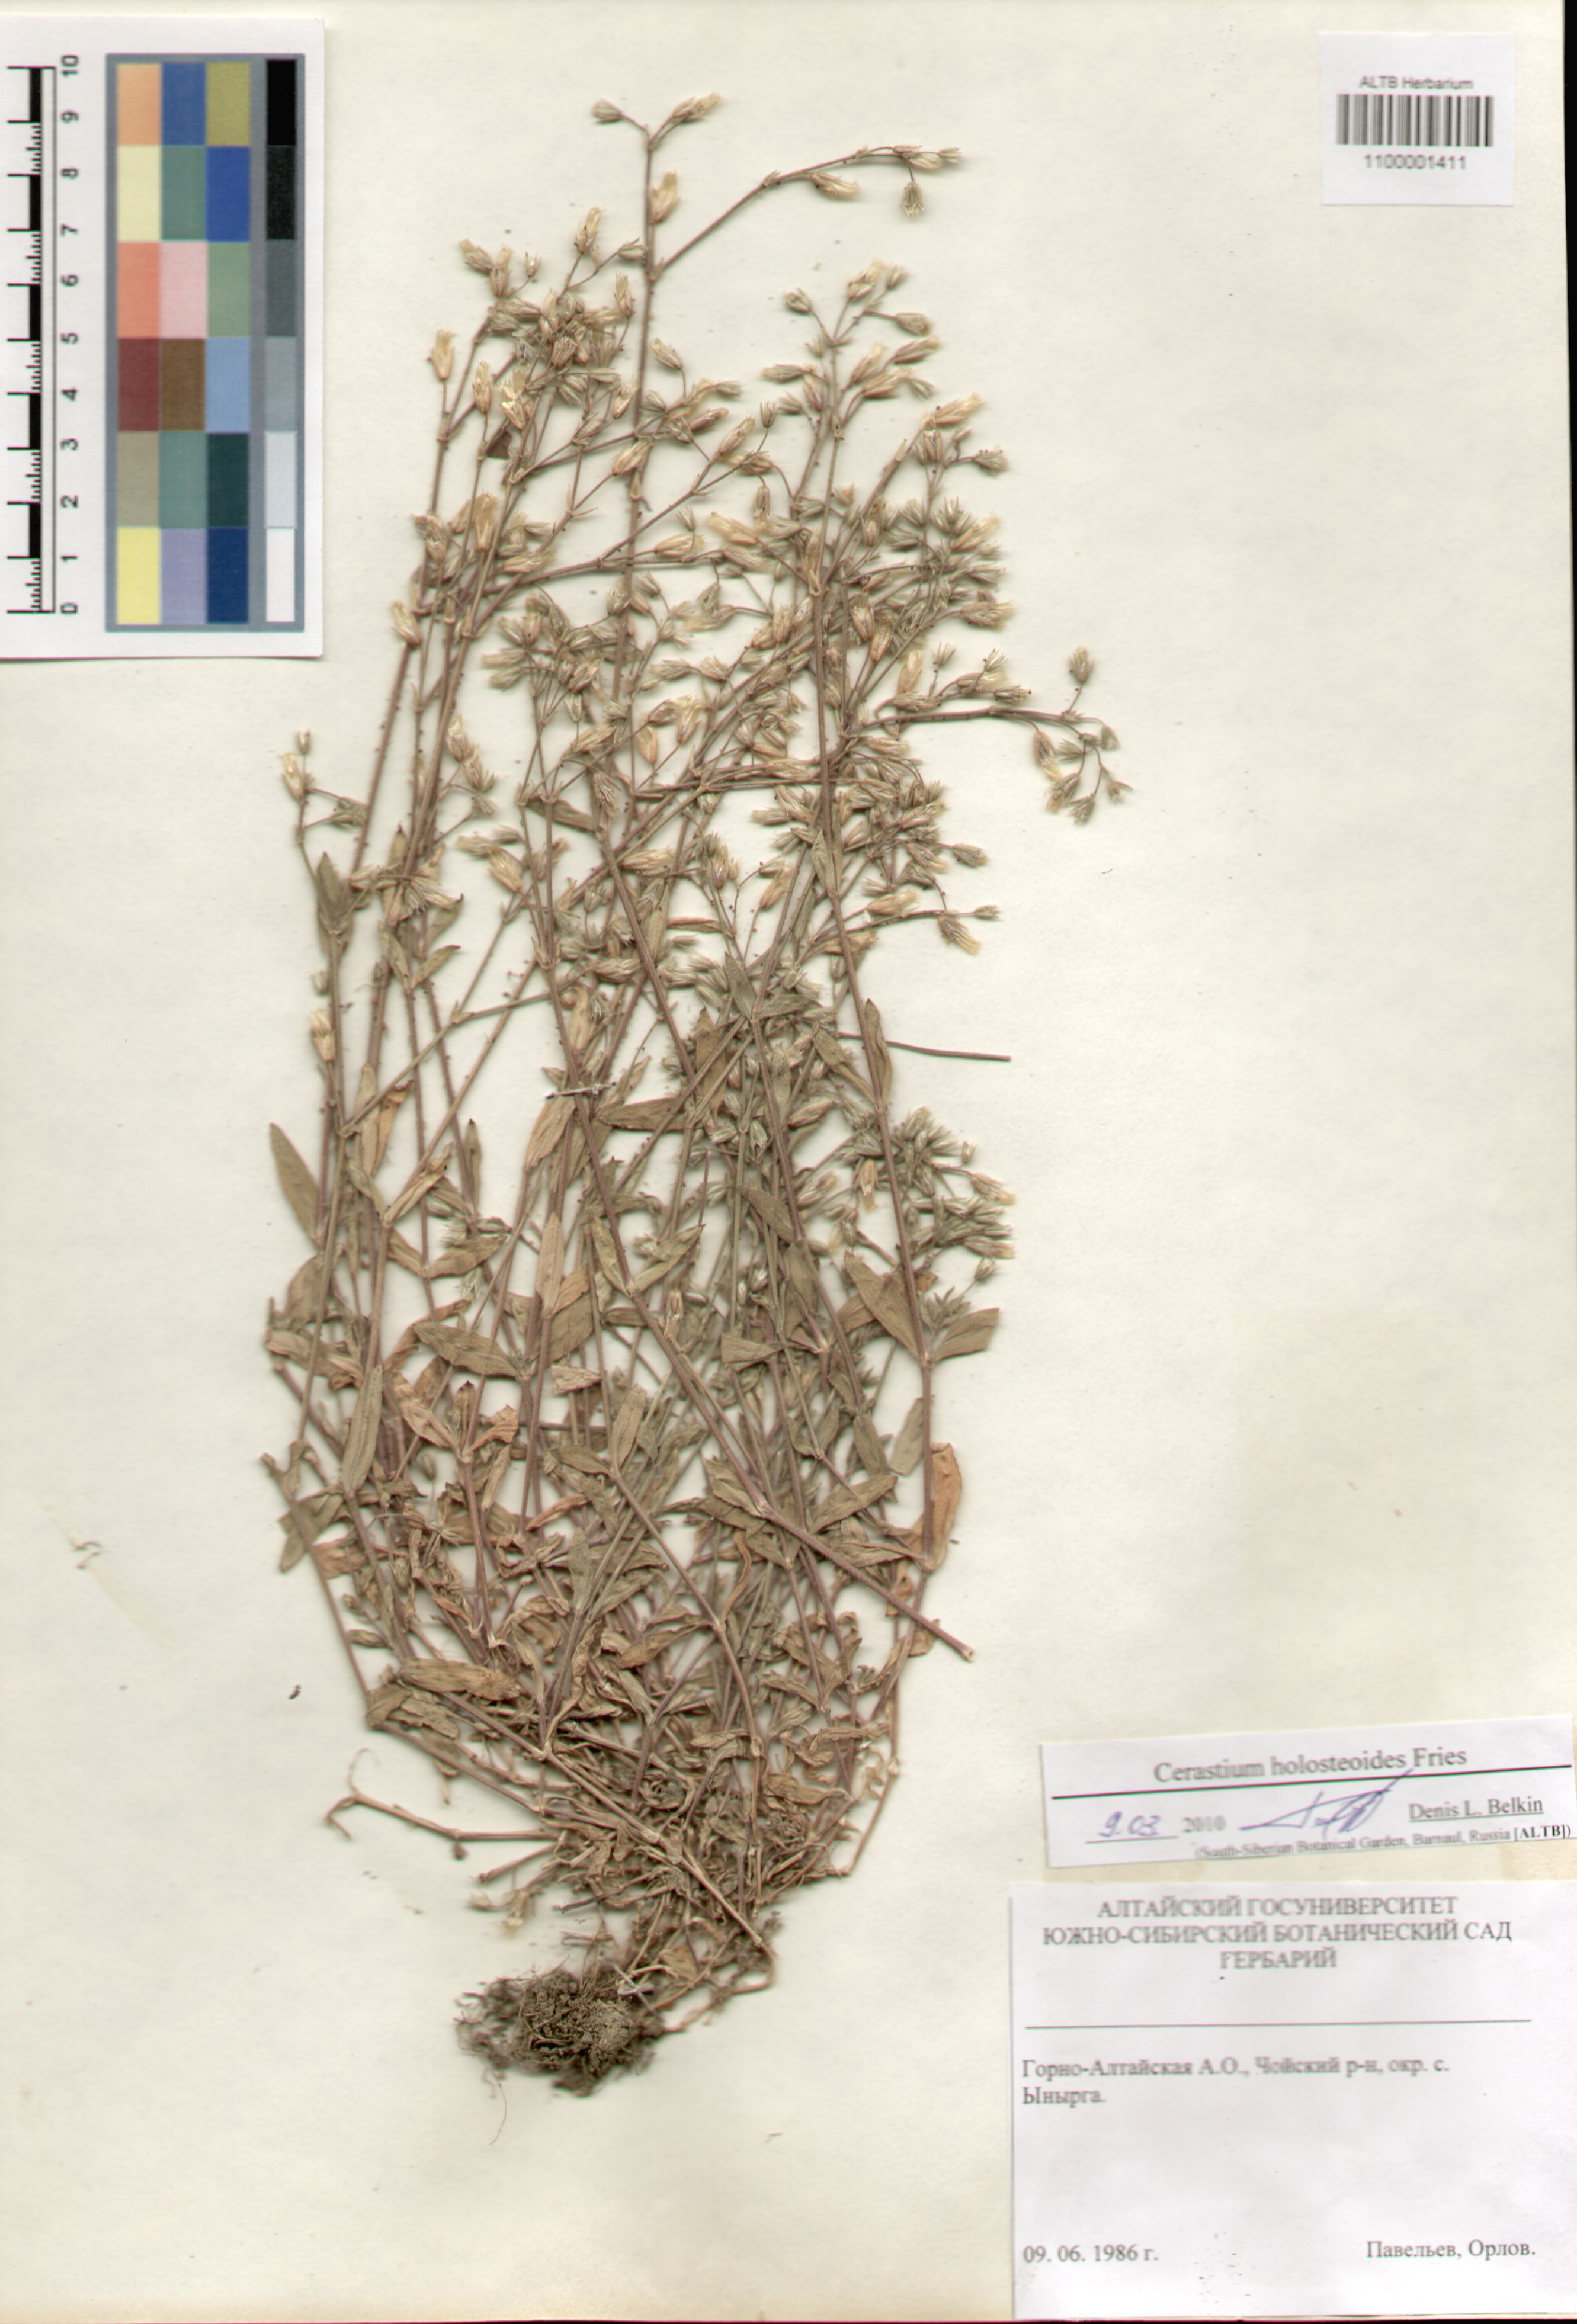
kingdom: Plantae
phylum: Tracheophyta
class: Magnoliopsida
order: Caryophyllales
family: Caryophyllaceae
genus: Cerastium
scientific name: Cerastium holosteoides
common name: Big chickweed
